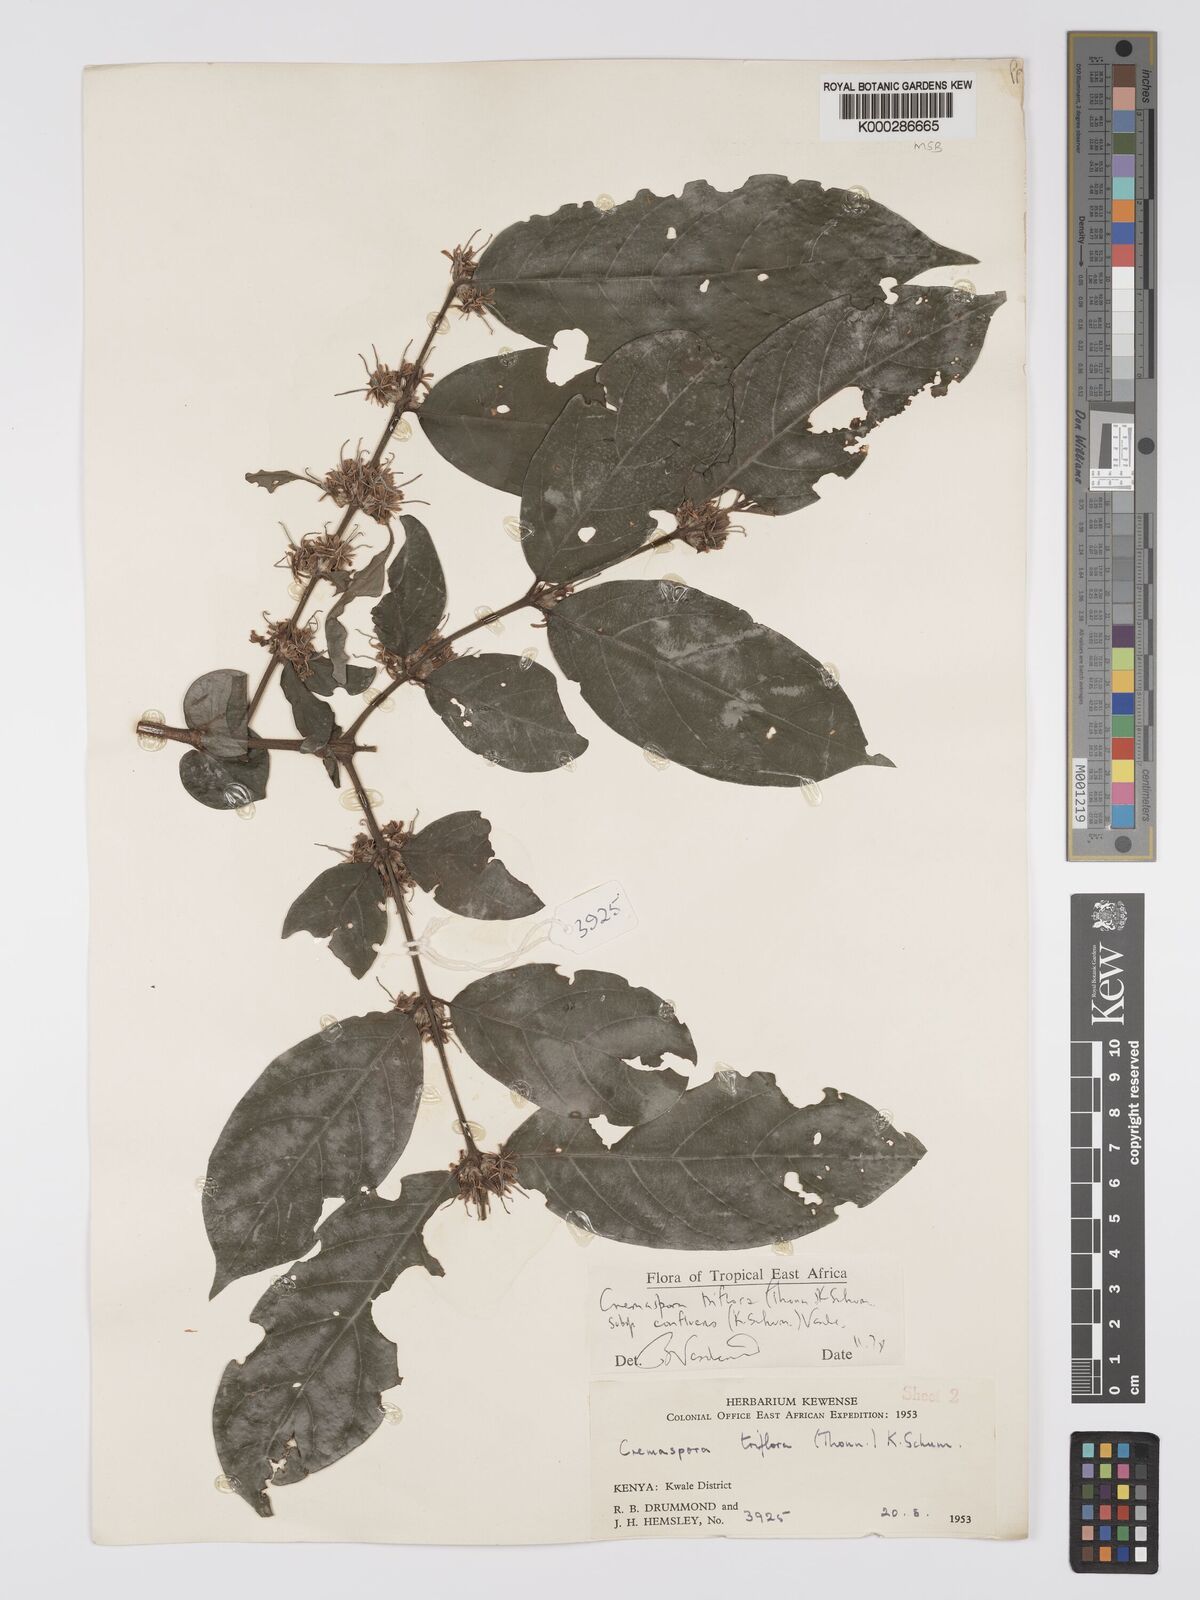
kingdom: Plantae
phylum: Tracheophyta
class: Magnoliopsida
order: Gentianales
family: Rubiaceae
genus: Cremaspora
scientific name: Cremaspora triflora
